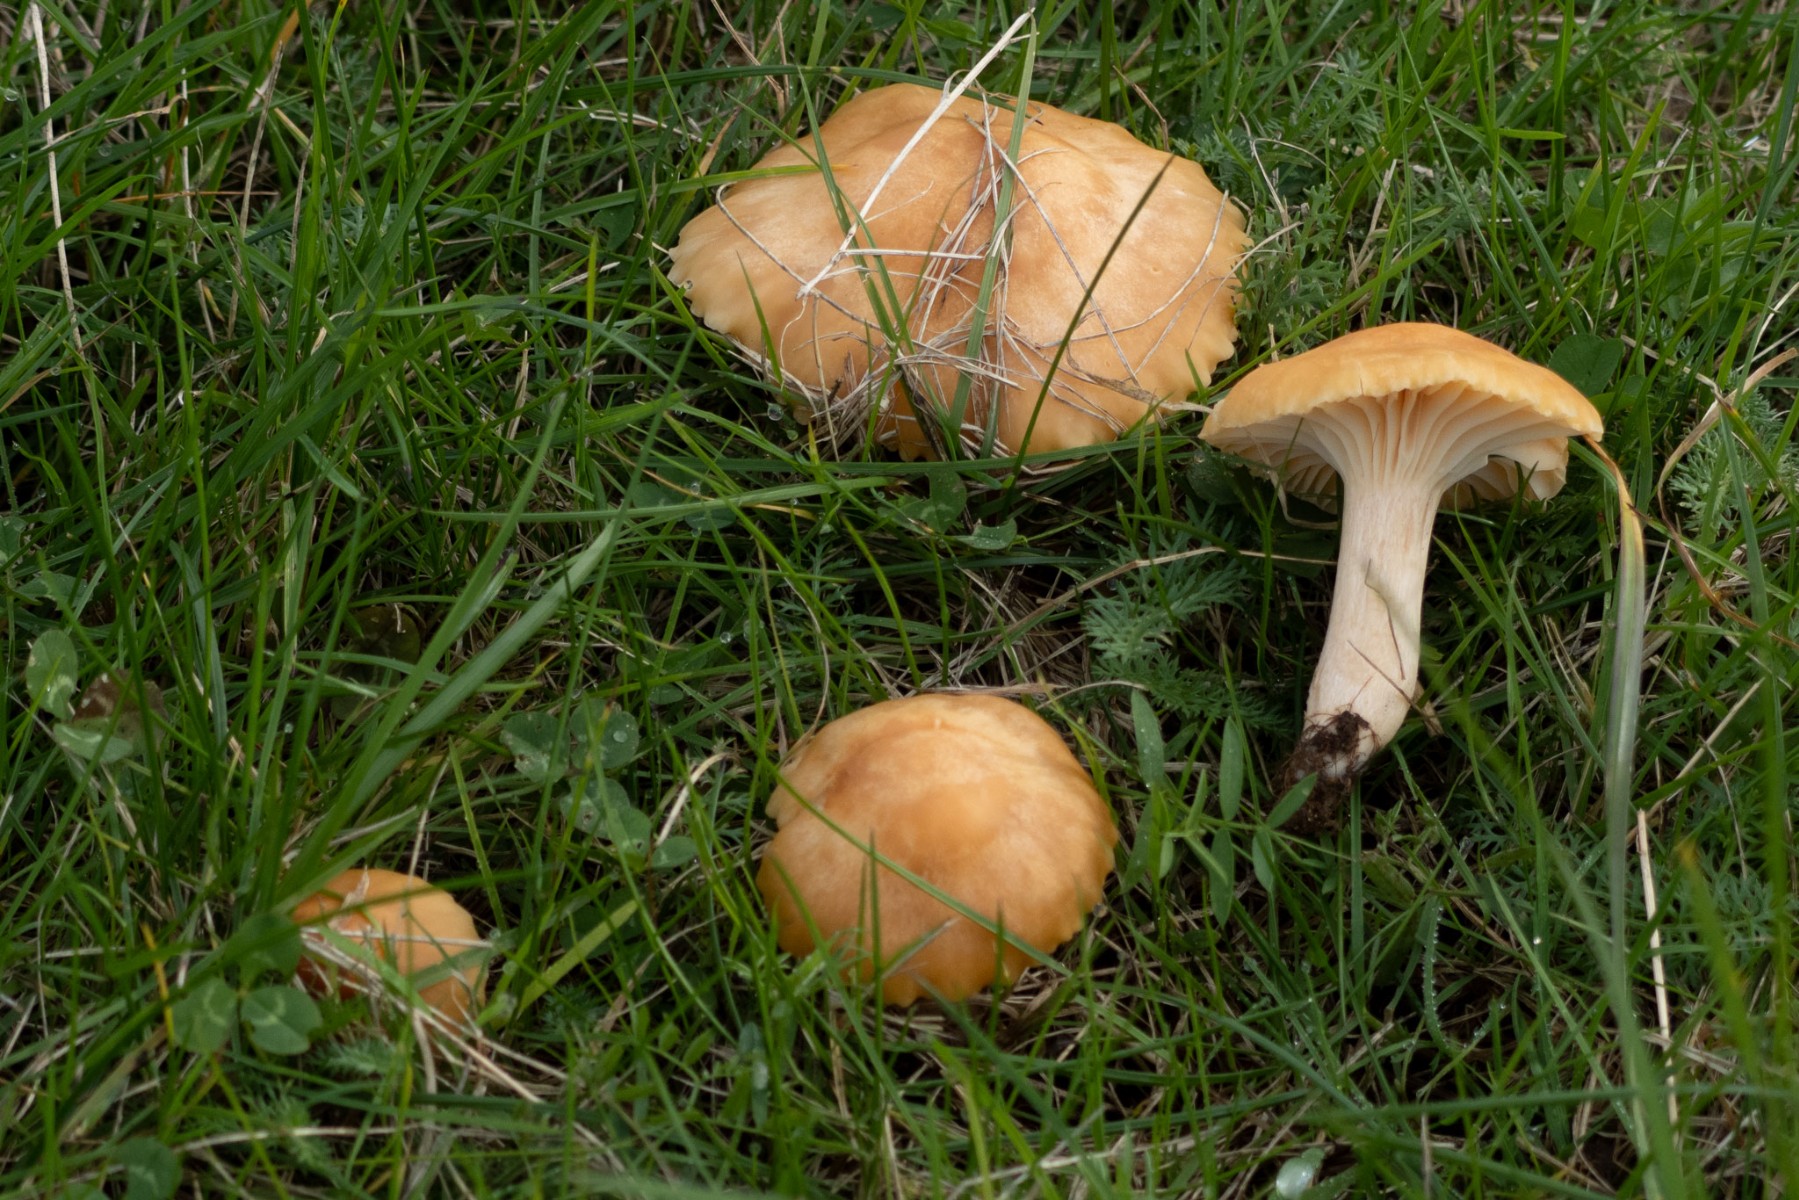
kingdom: Fungi
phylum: Basidiomycota
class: Agaricomycetes
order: Agaricales
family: Hygrophoraceae
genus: Cuphophyllus
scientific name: Cuphophyllus pratensis
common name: eng-vokshat
